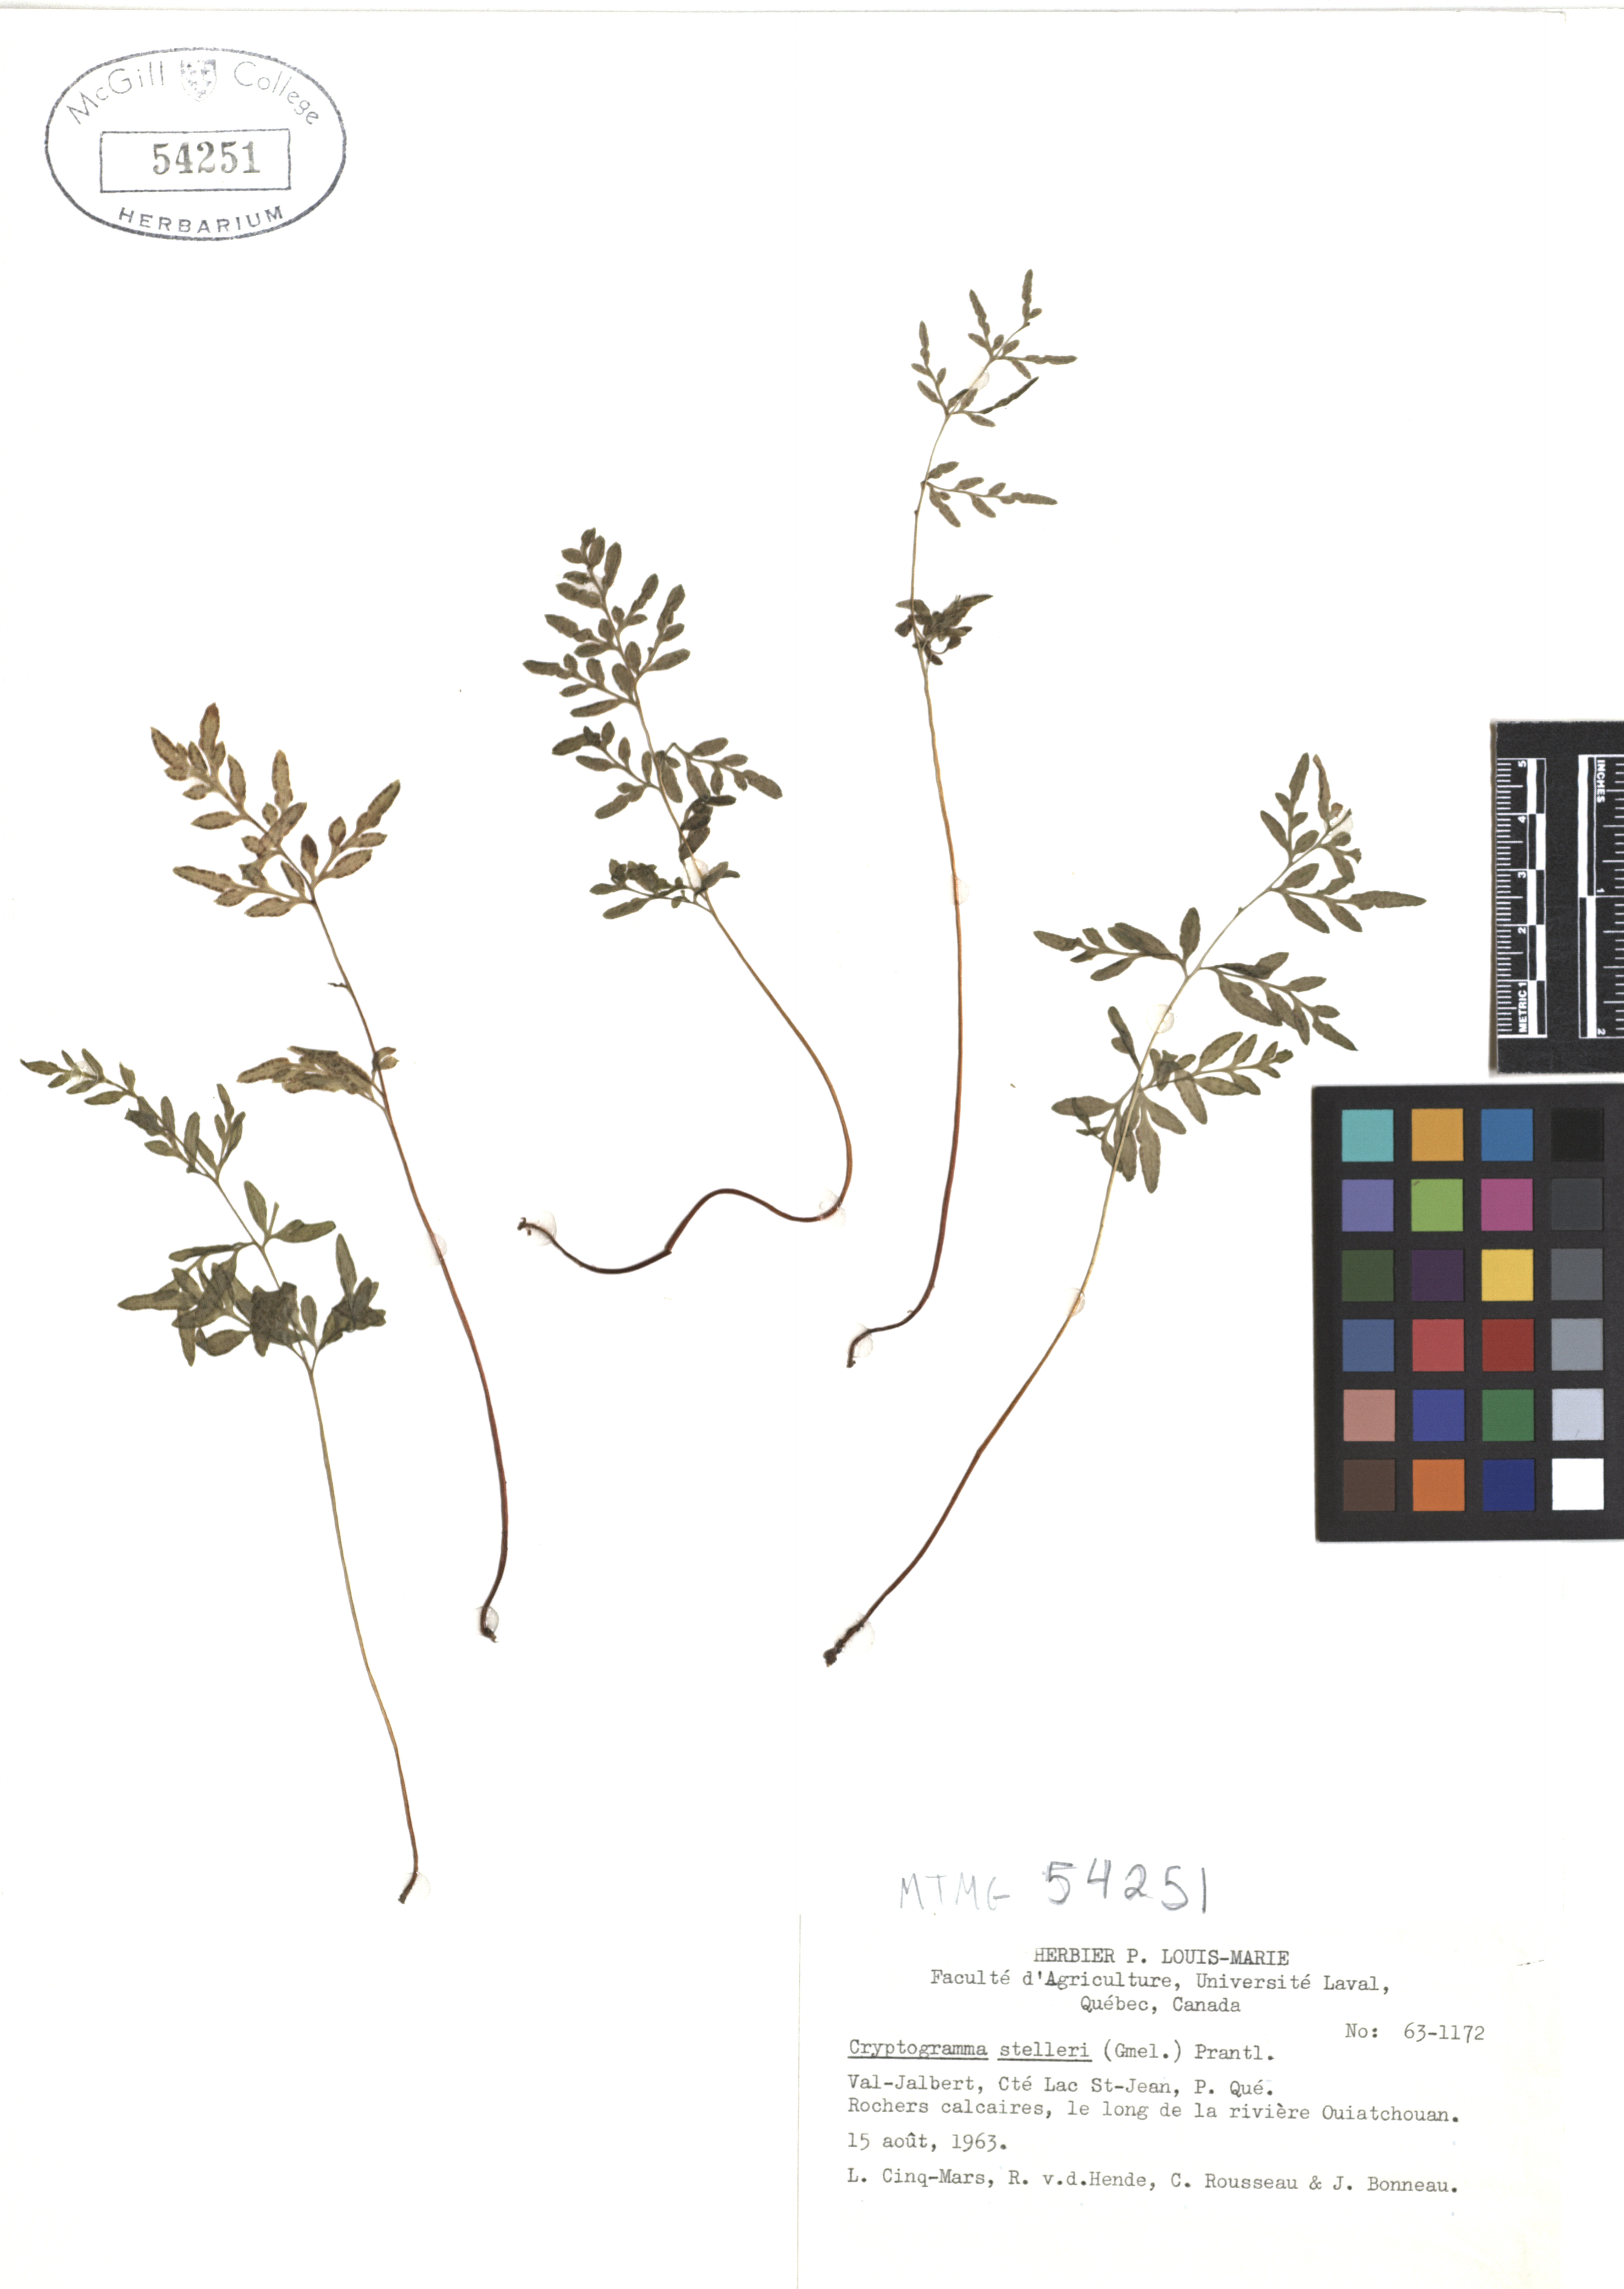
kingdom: Plantae
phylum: Tracheophyta
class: Polypodiopsida
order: Polypodiales
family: Pteridaceae
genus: Cryptogramma
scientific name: Cryptogramma stelleri
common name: Cliff-brake
